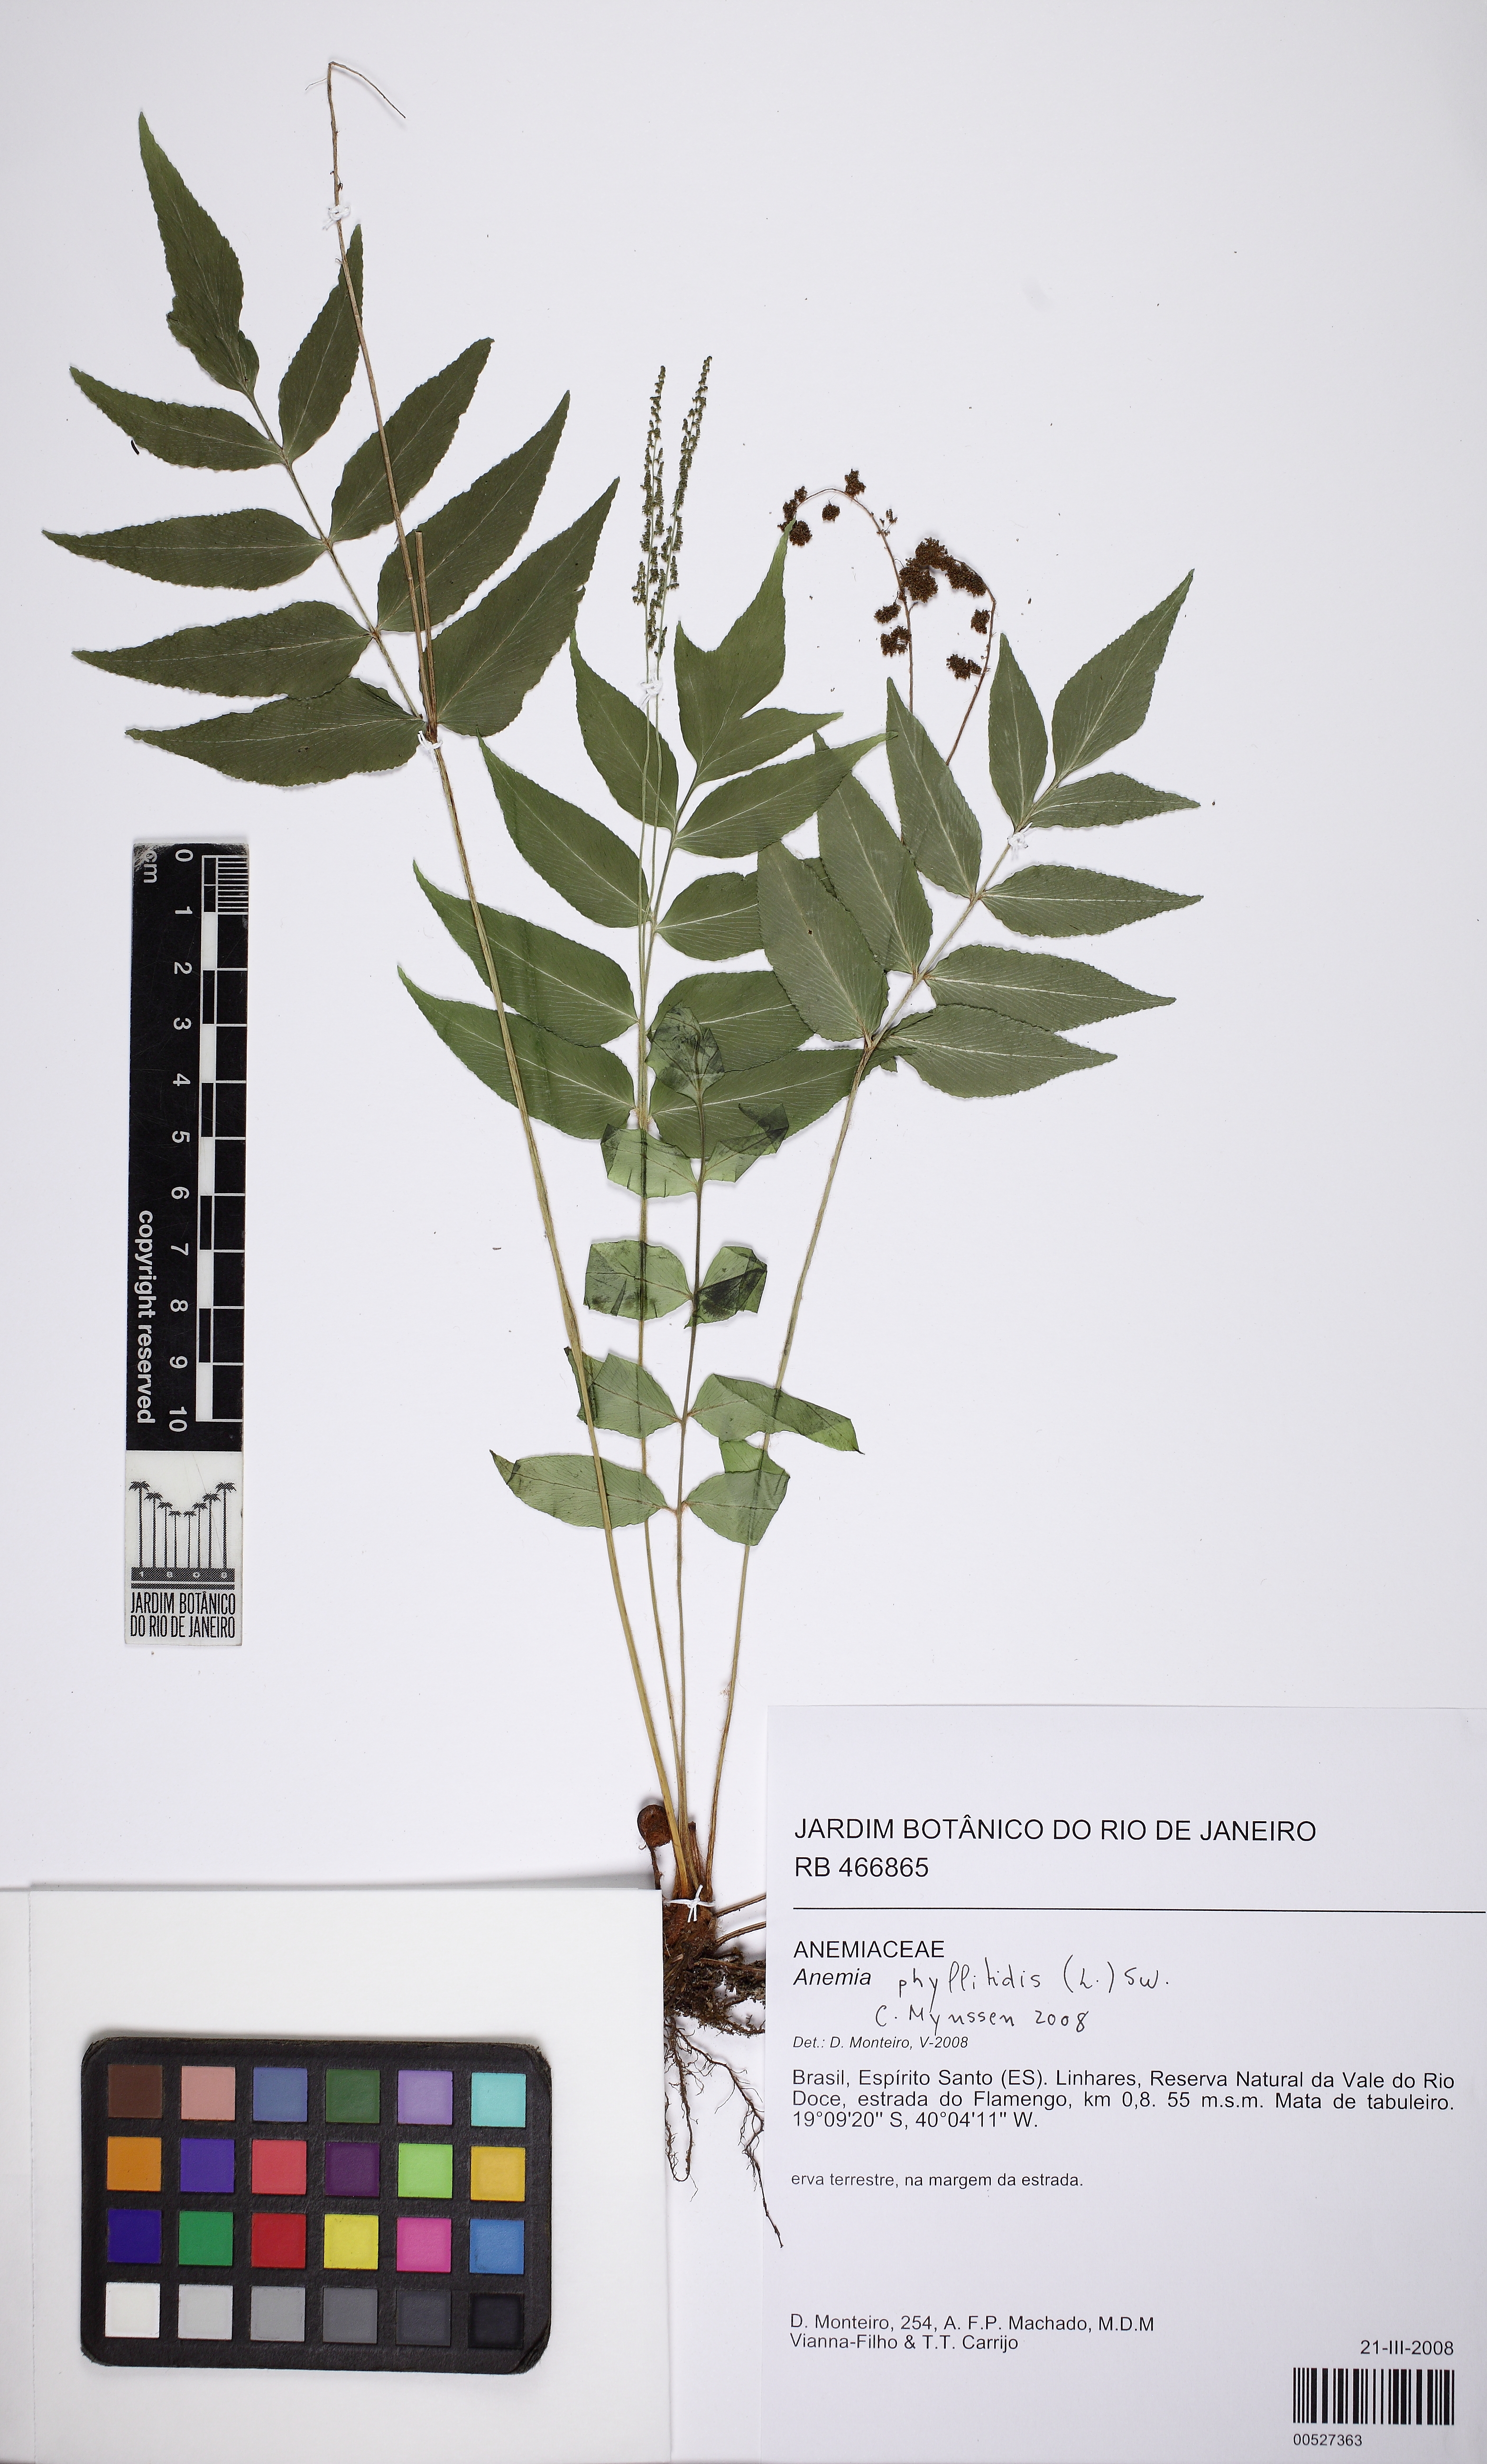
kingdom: Plantae
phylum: Tracheophyta
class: Polypodiopsida
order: Schizaeales
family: Anemiaceae
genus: Anemia
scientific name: Anemia phyllitidis
